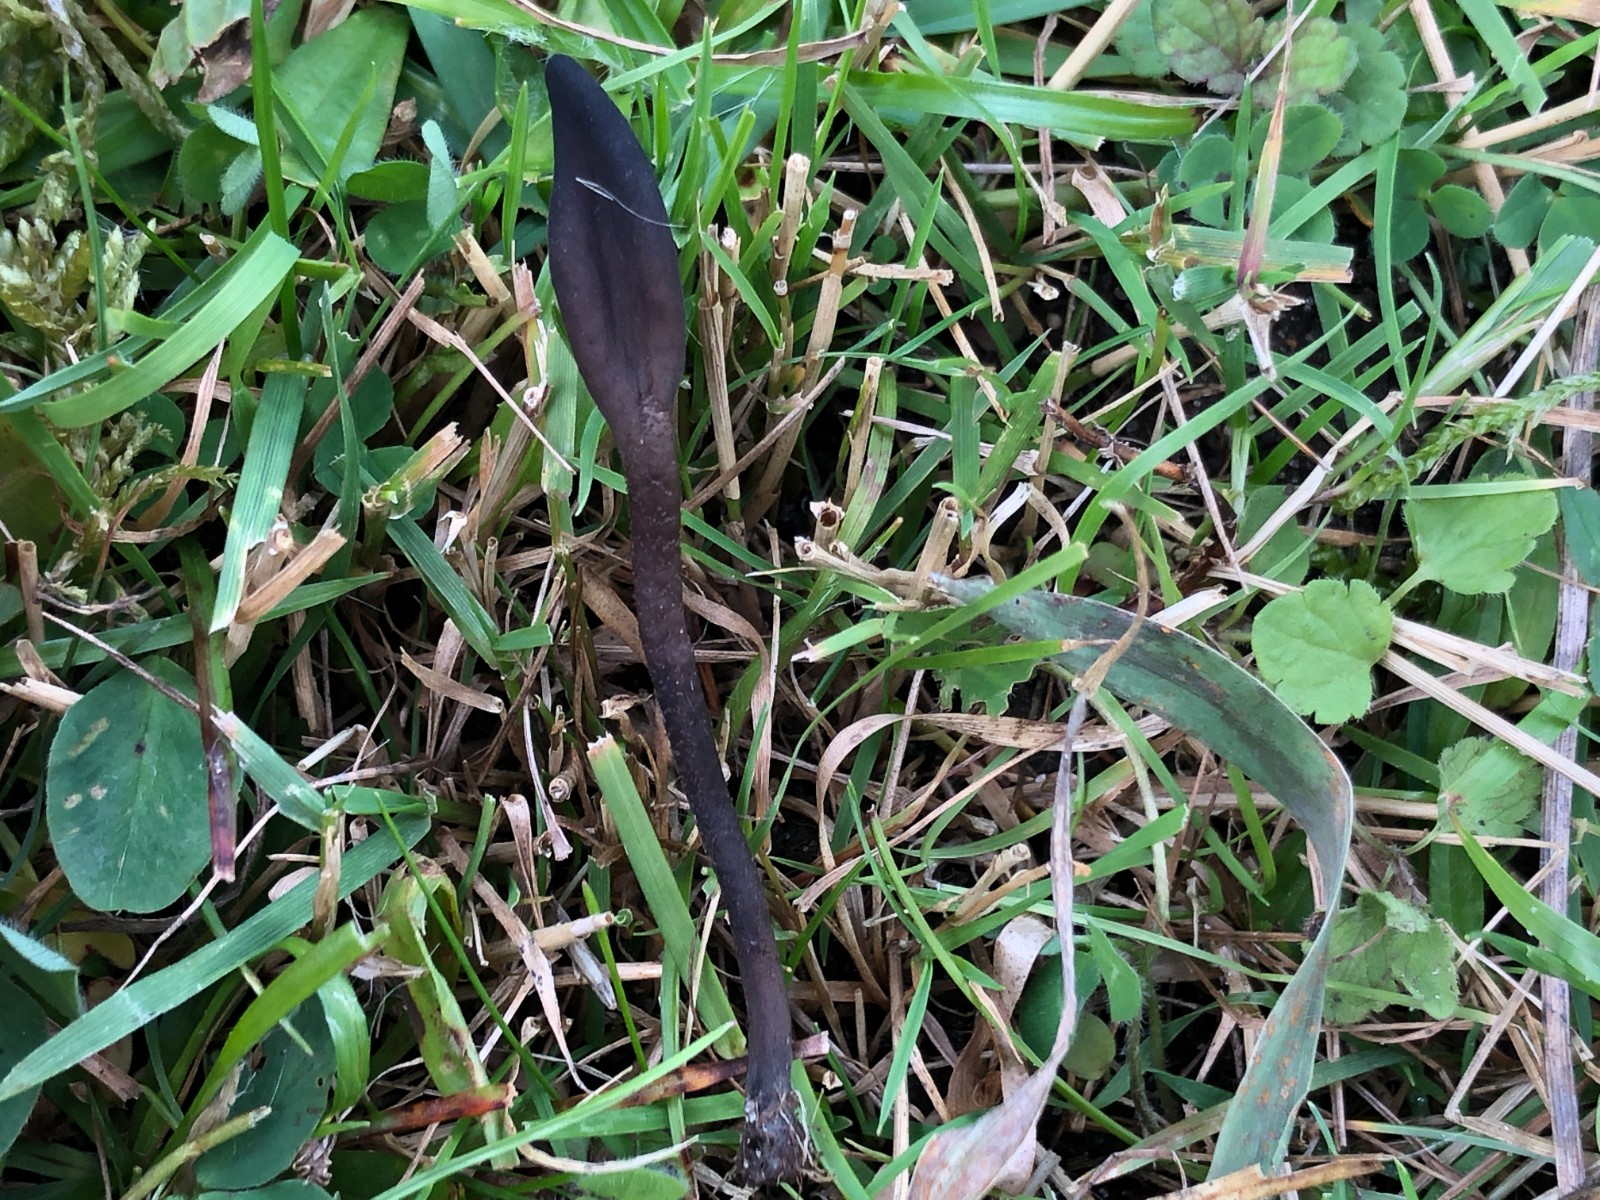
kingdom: Fungi
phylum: Ascomycota
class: Geoglossomycetes
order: Geoglossales
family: Geoglossaceae
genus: Geoglossum
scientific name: Geoglossum
